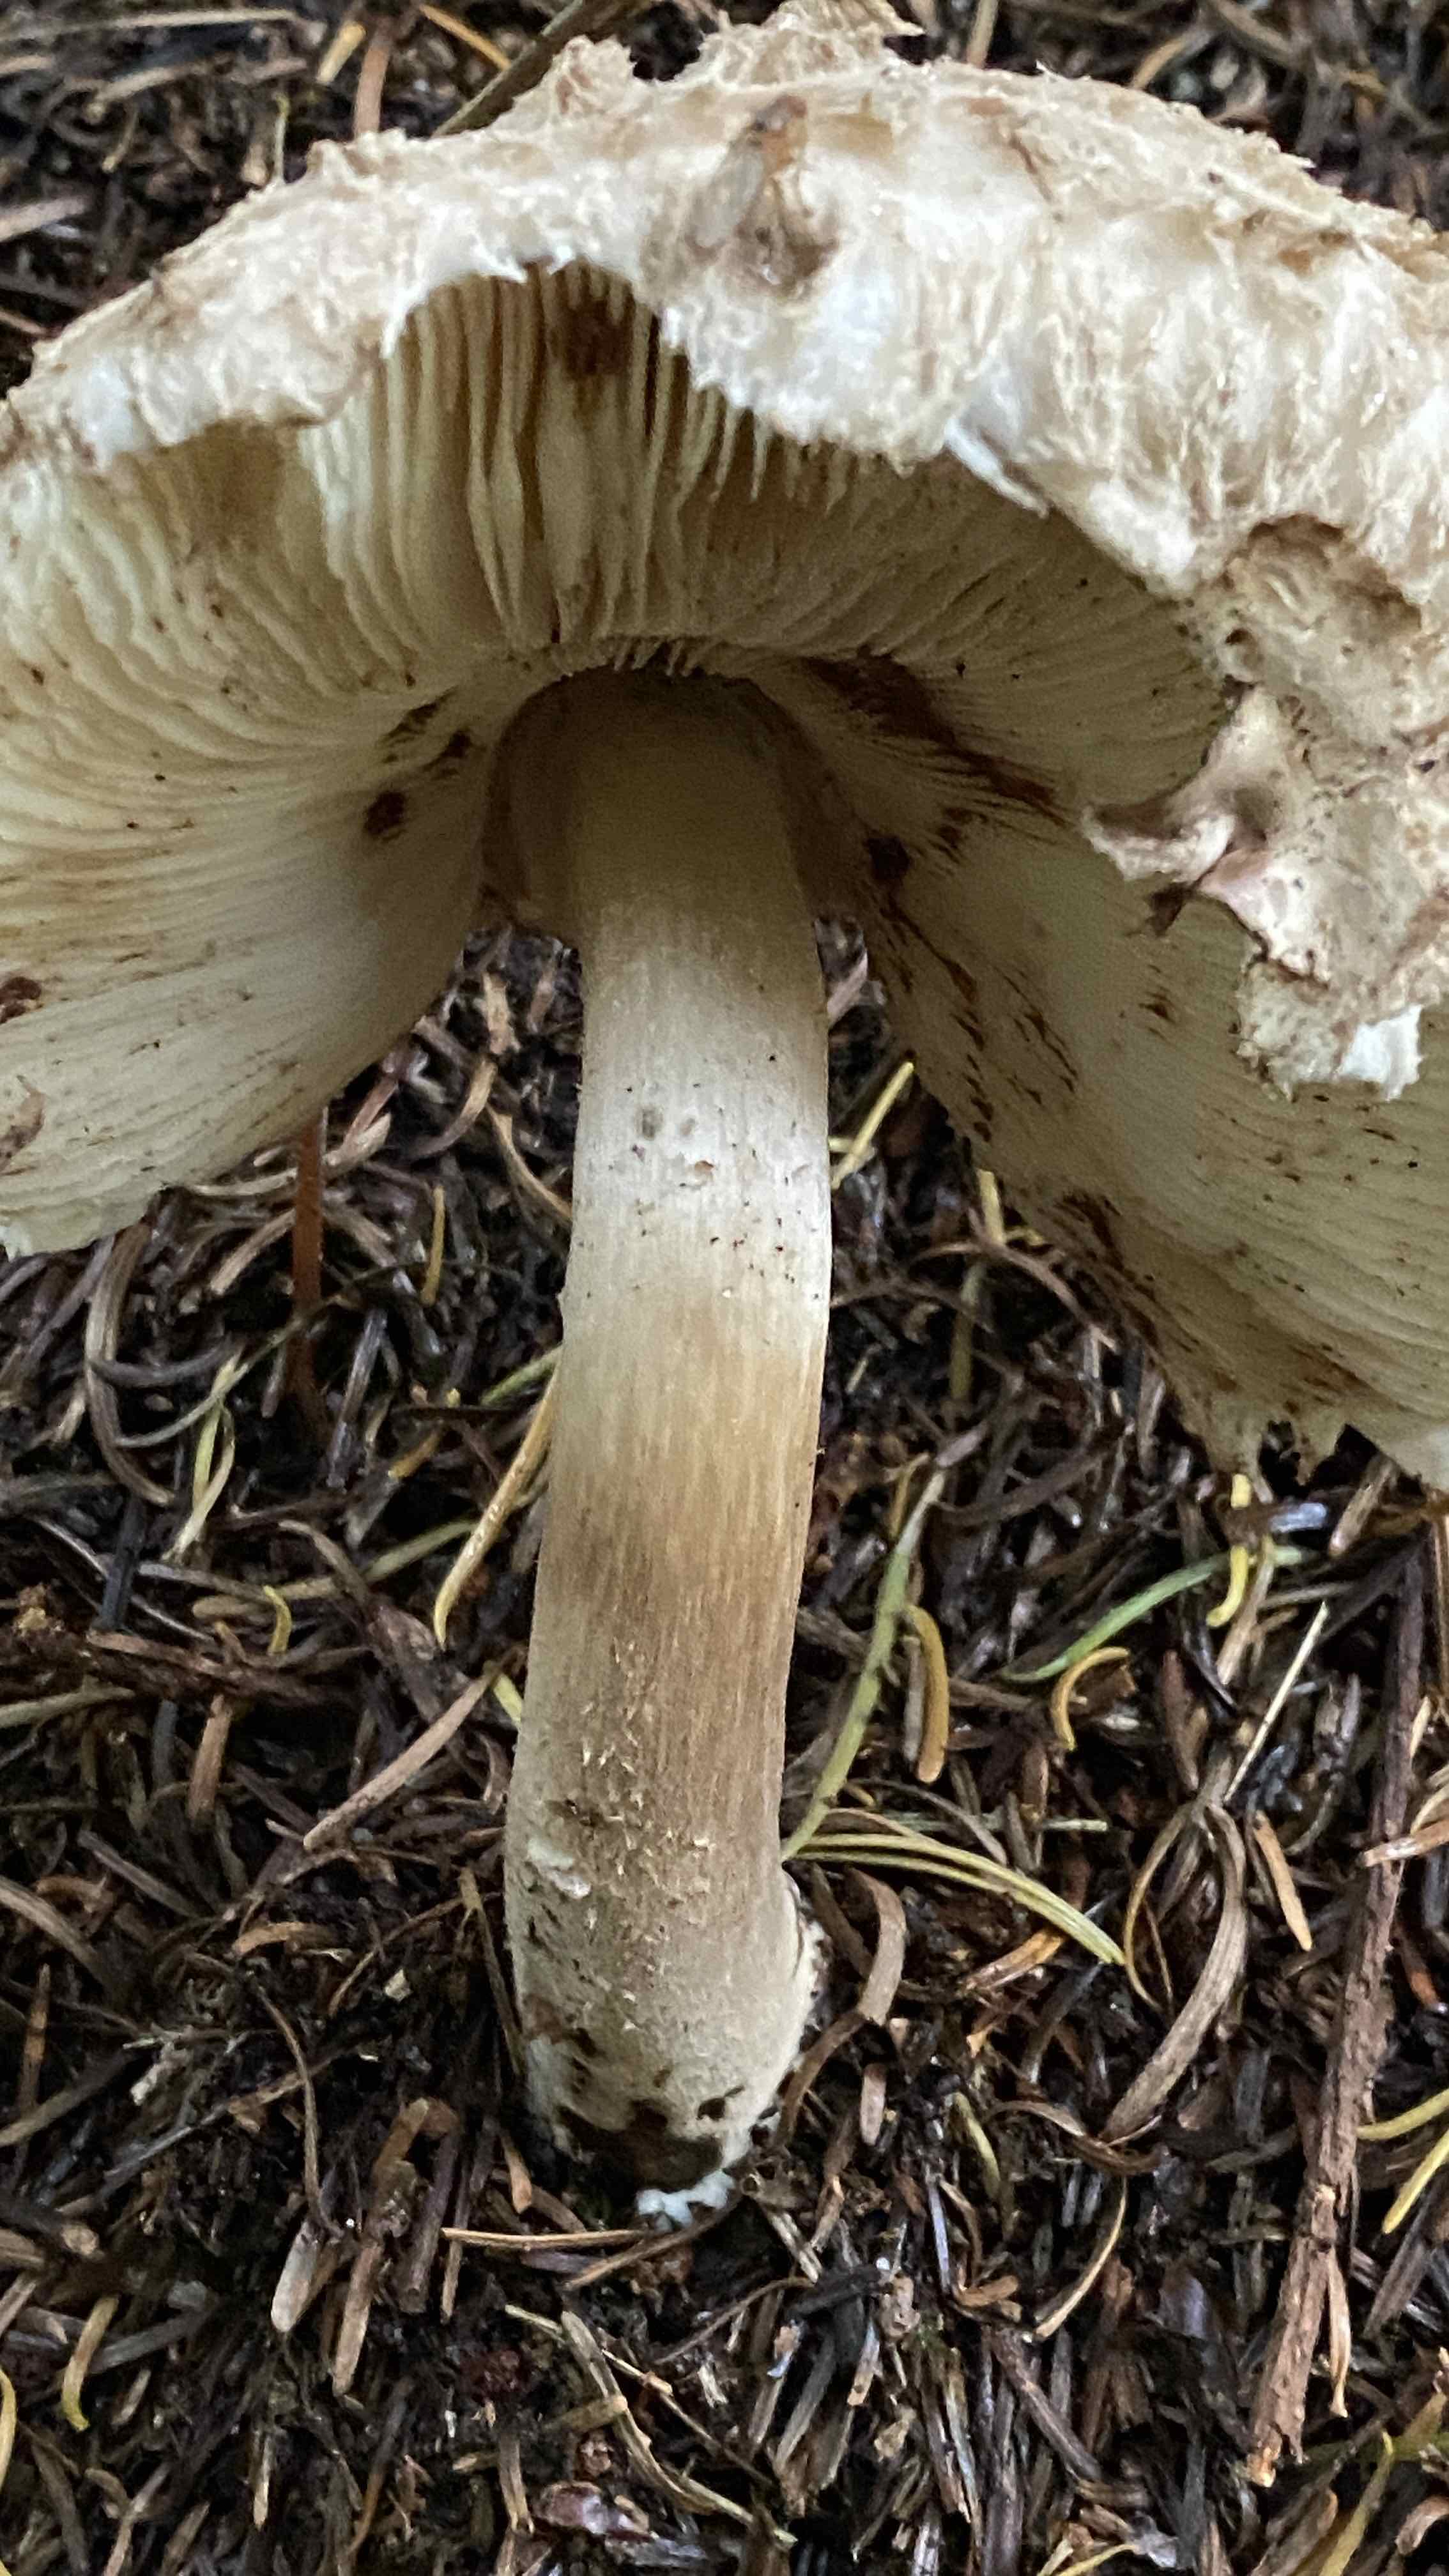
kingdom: Fungi
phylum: Basidiomycota
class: Agaricomycetes
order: Agaricales
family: Agaricaceae
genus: Chlorophyllum
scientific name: Chlorophyllum olivieri
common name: almindelig rabarberhat
